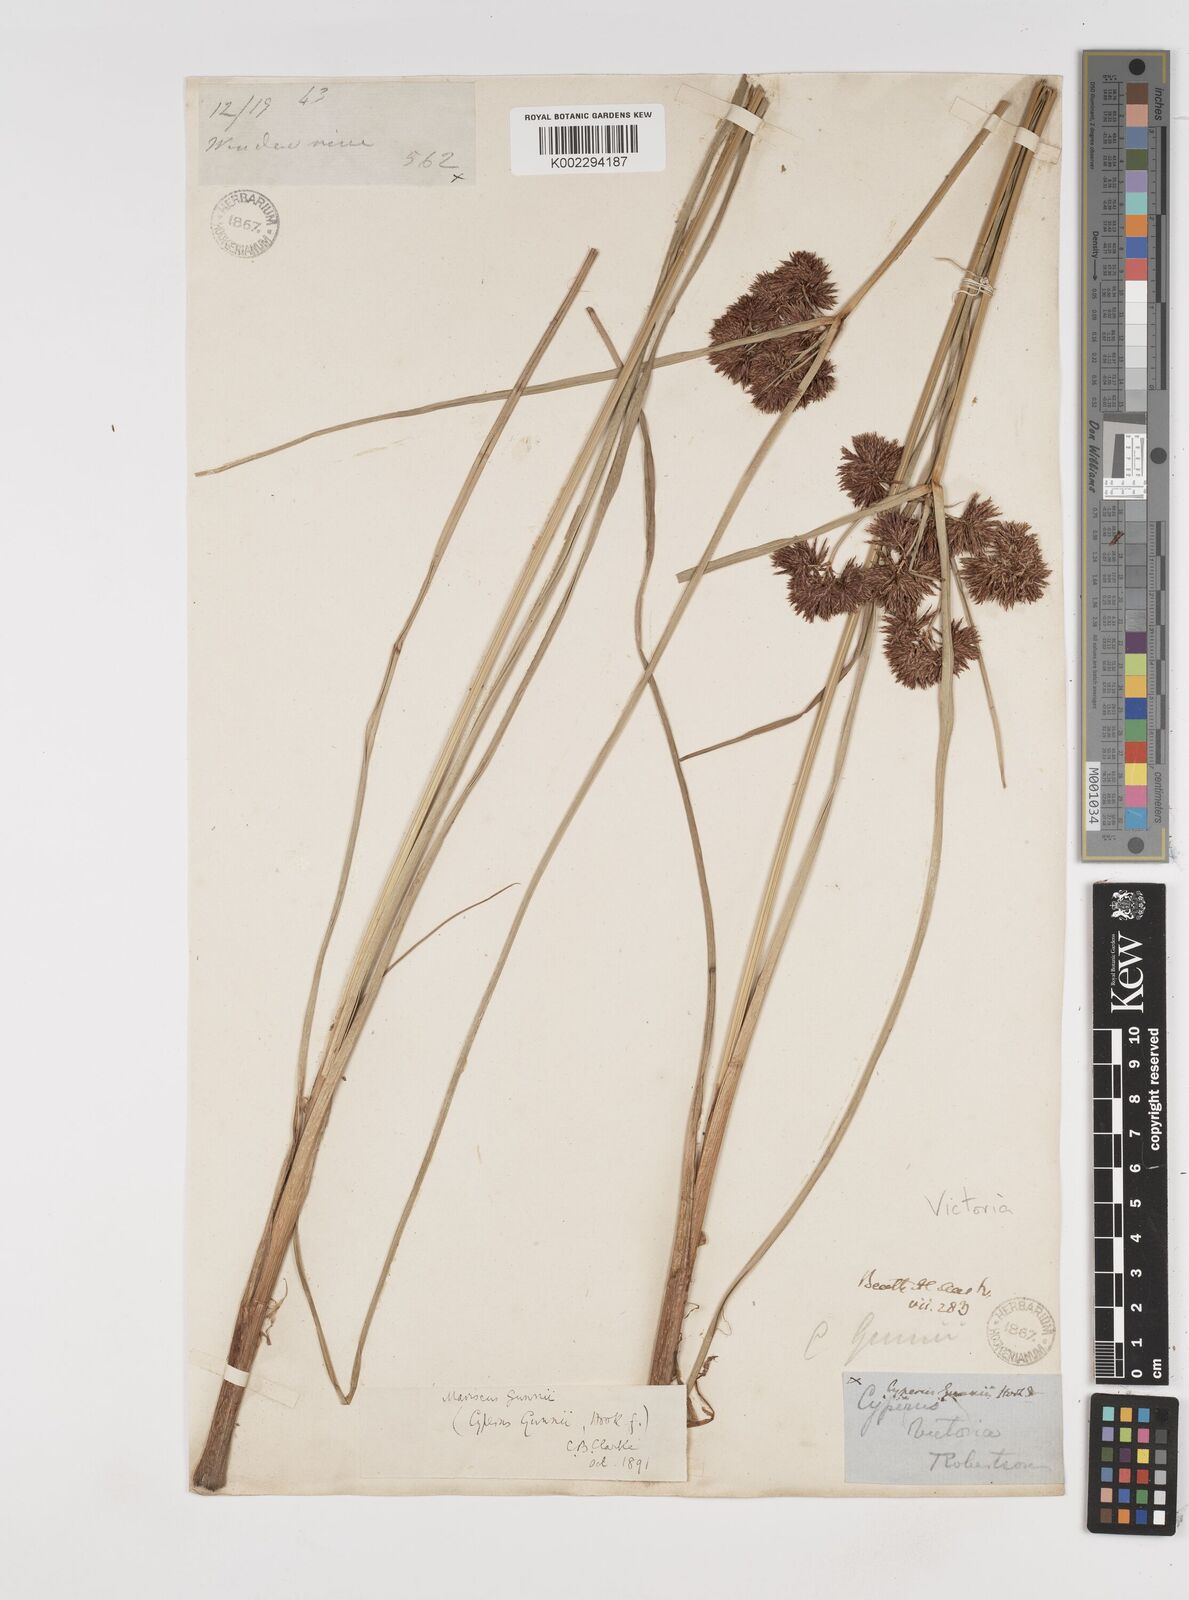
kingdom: Plantae
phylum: Tracheophyta
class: Liliopsida
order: Poales
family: Cyperaceae
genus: Cyperus
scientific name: Cyperus gunnii
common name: Flecked flat-sedge
